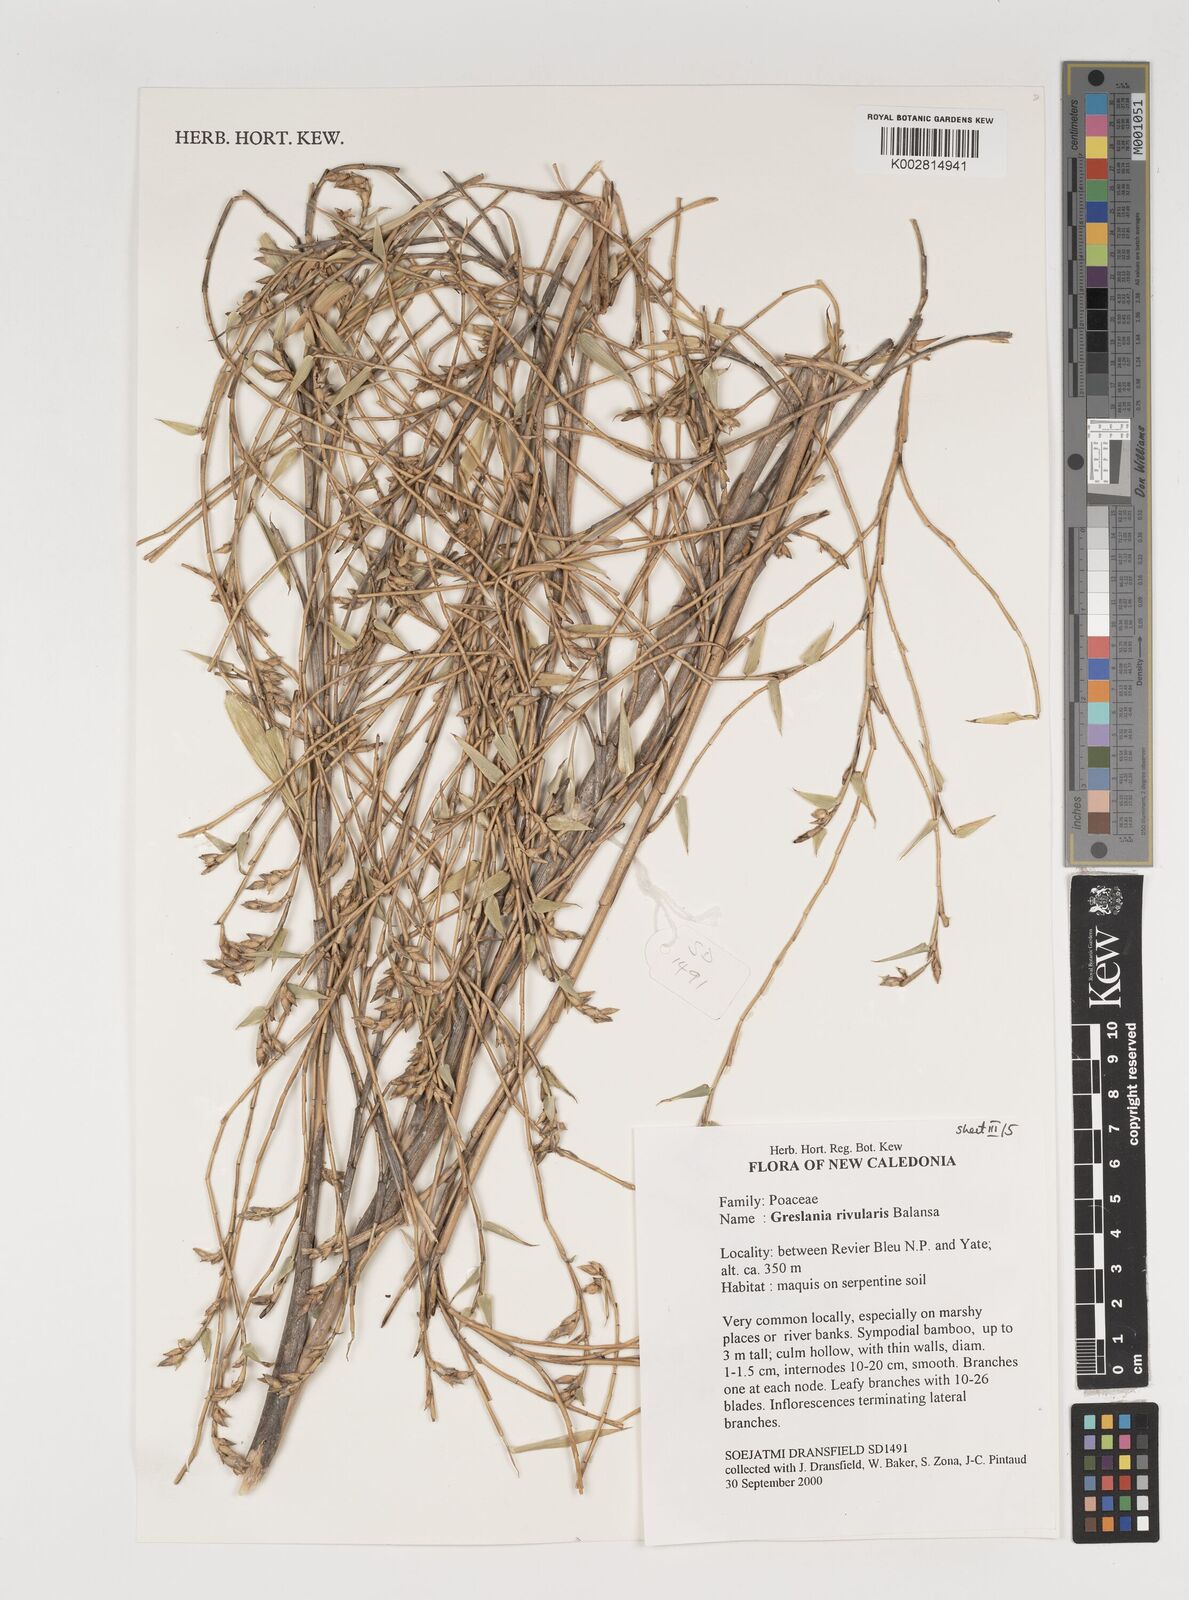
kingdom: Plantae
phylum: Tracheophyta
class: Liliopsida
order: Poales
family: Poaceae
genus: Greslania
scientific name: Greslania rivularis
